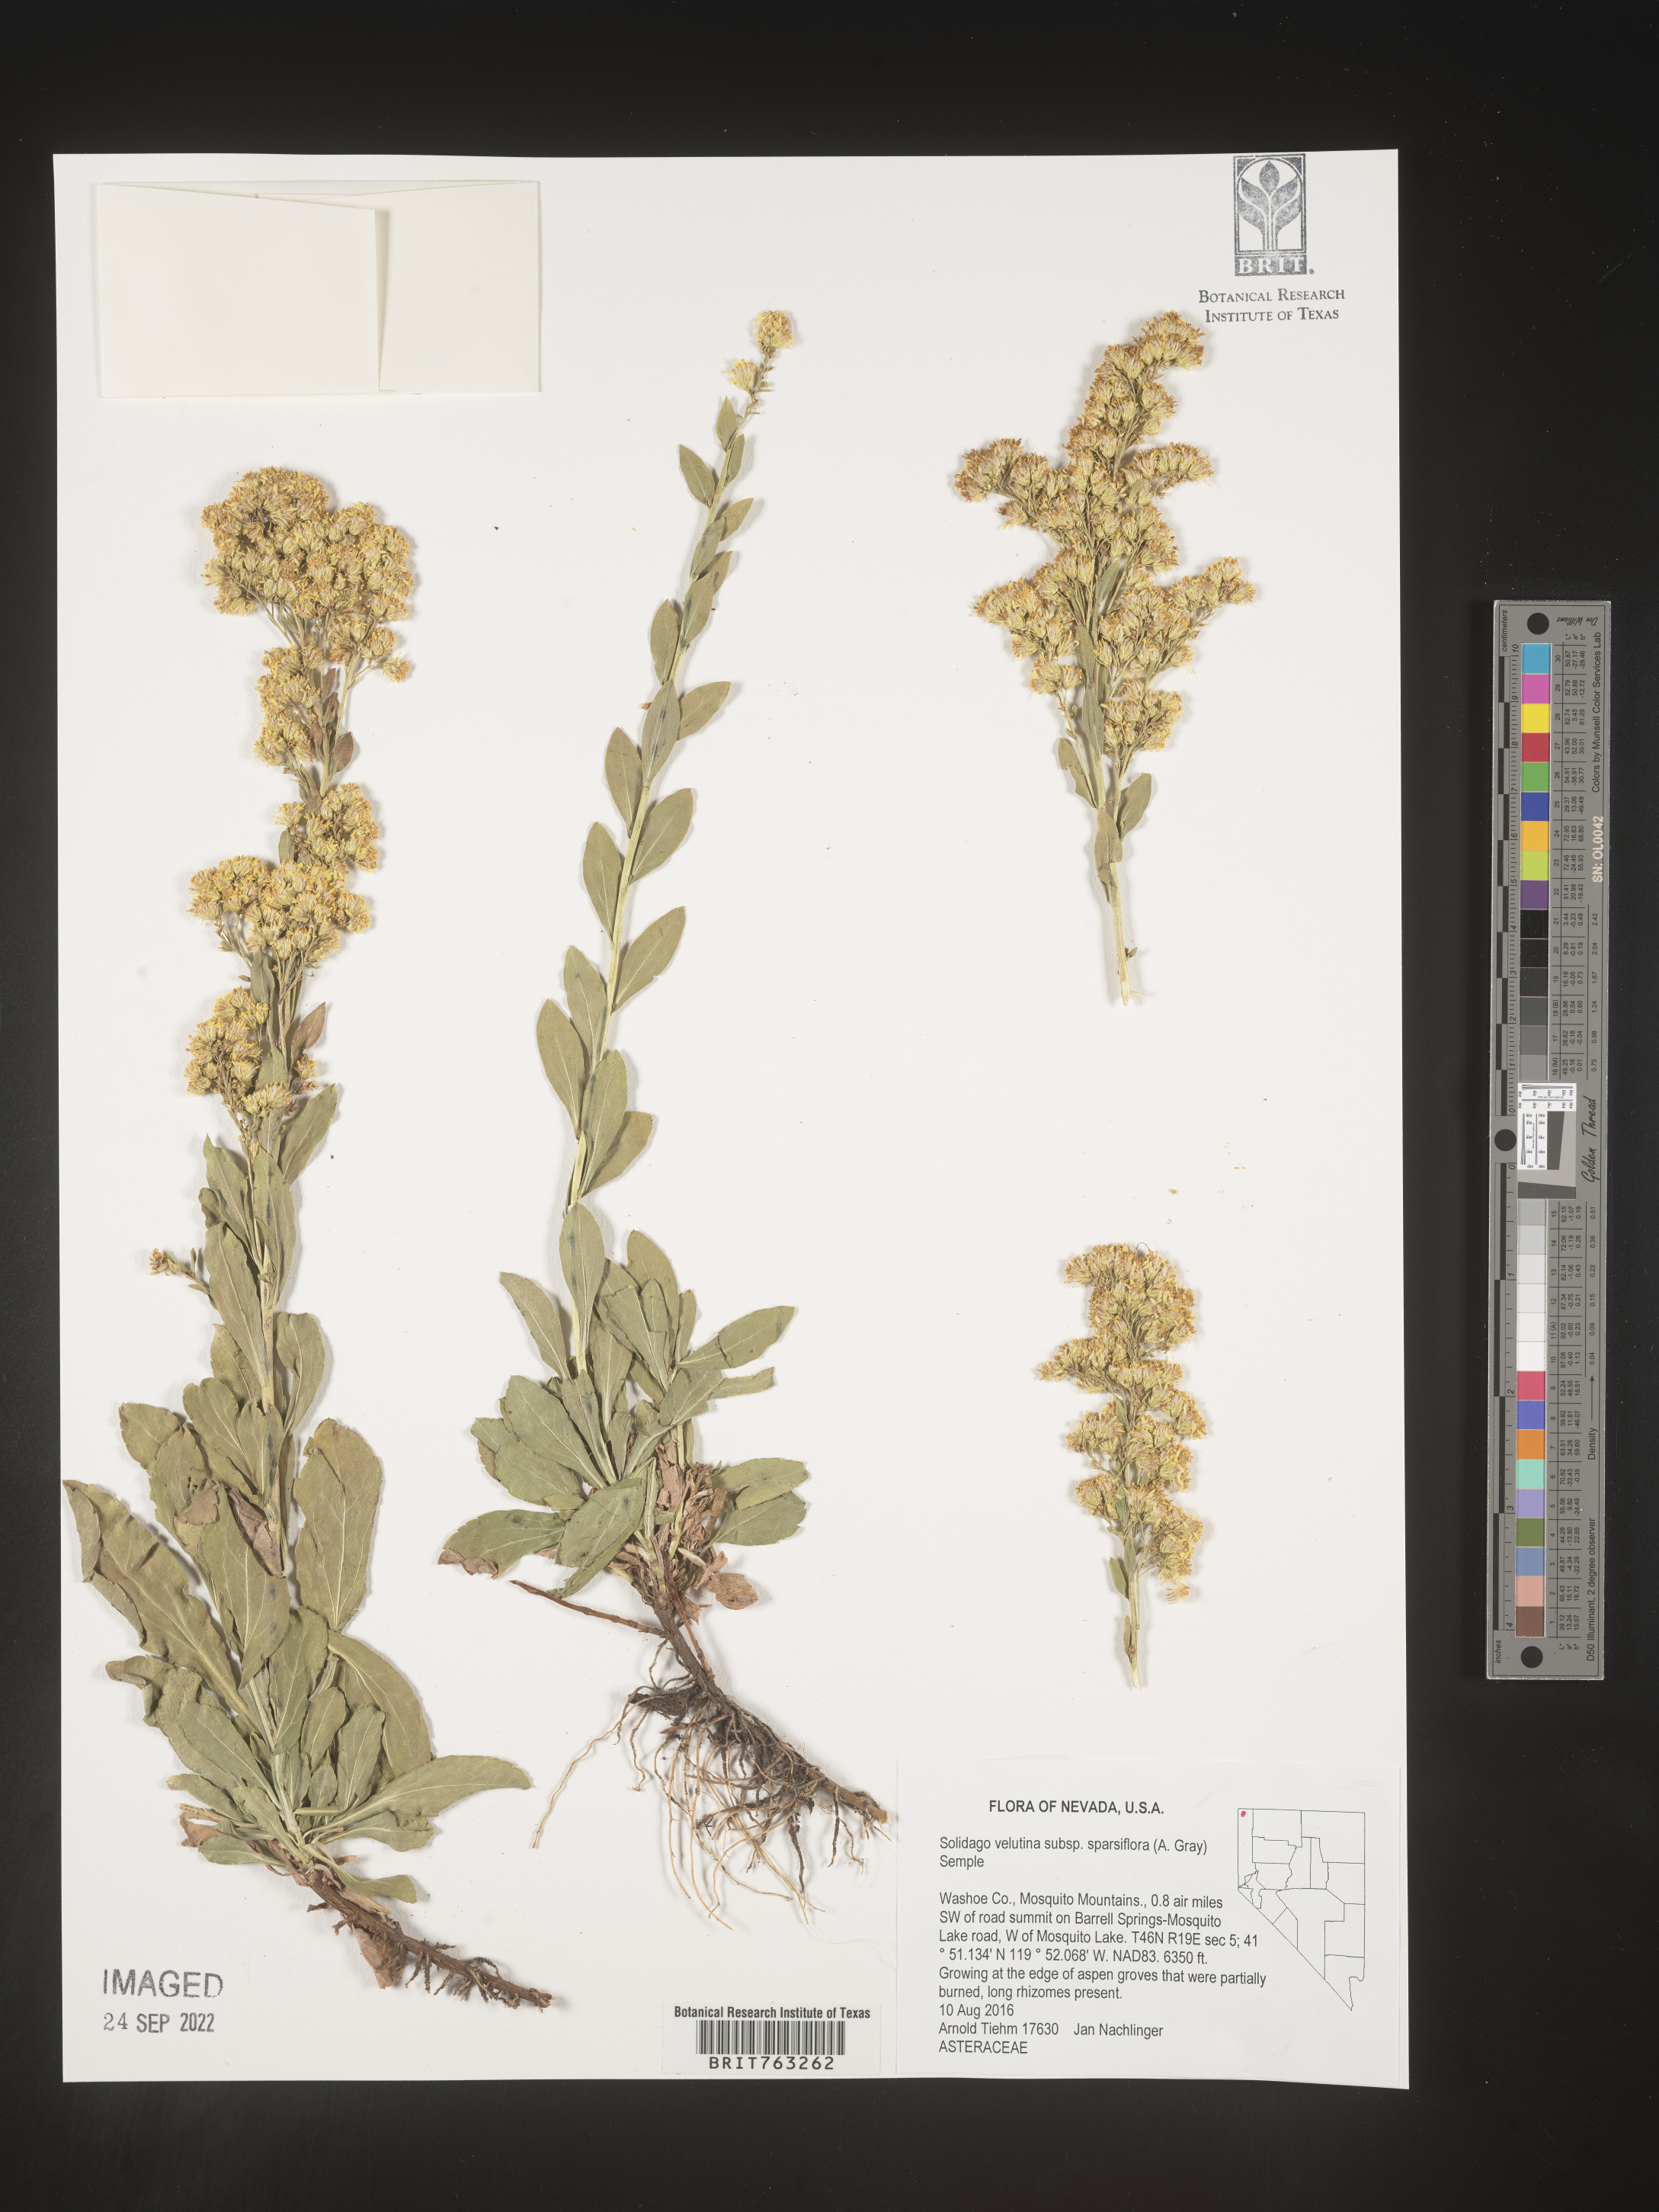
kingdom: Plantae
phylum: Tracheophyta
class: Magnoliopsida
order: Asterales
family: Asteraceae
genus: Solidago
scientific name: Solidago garrettii
